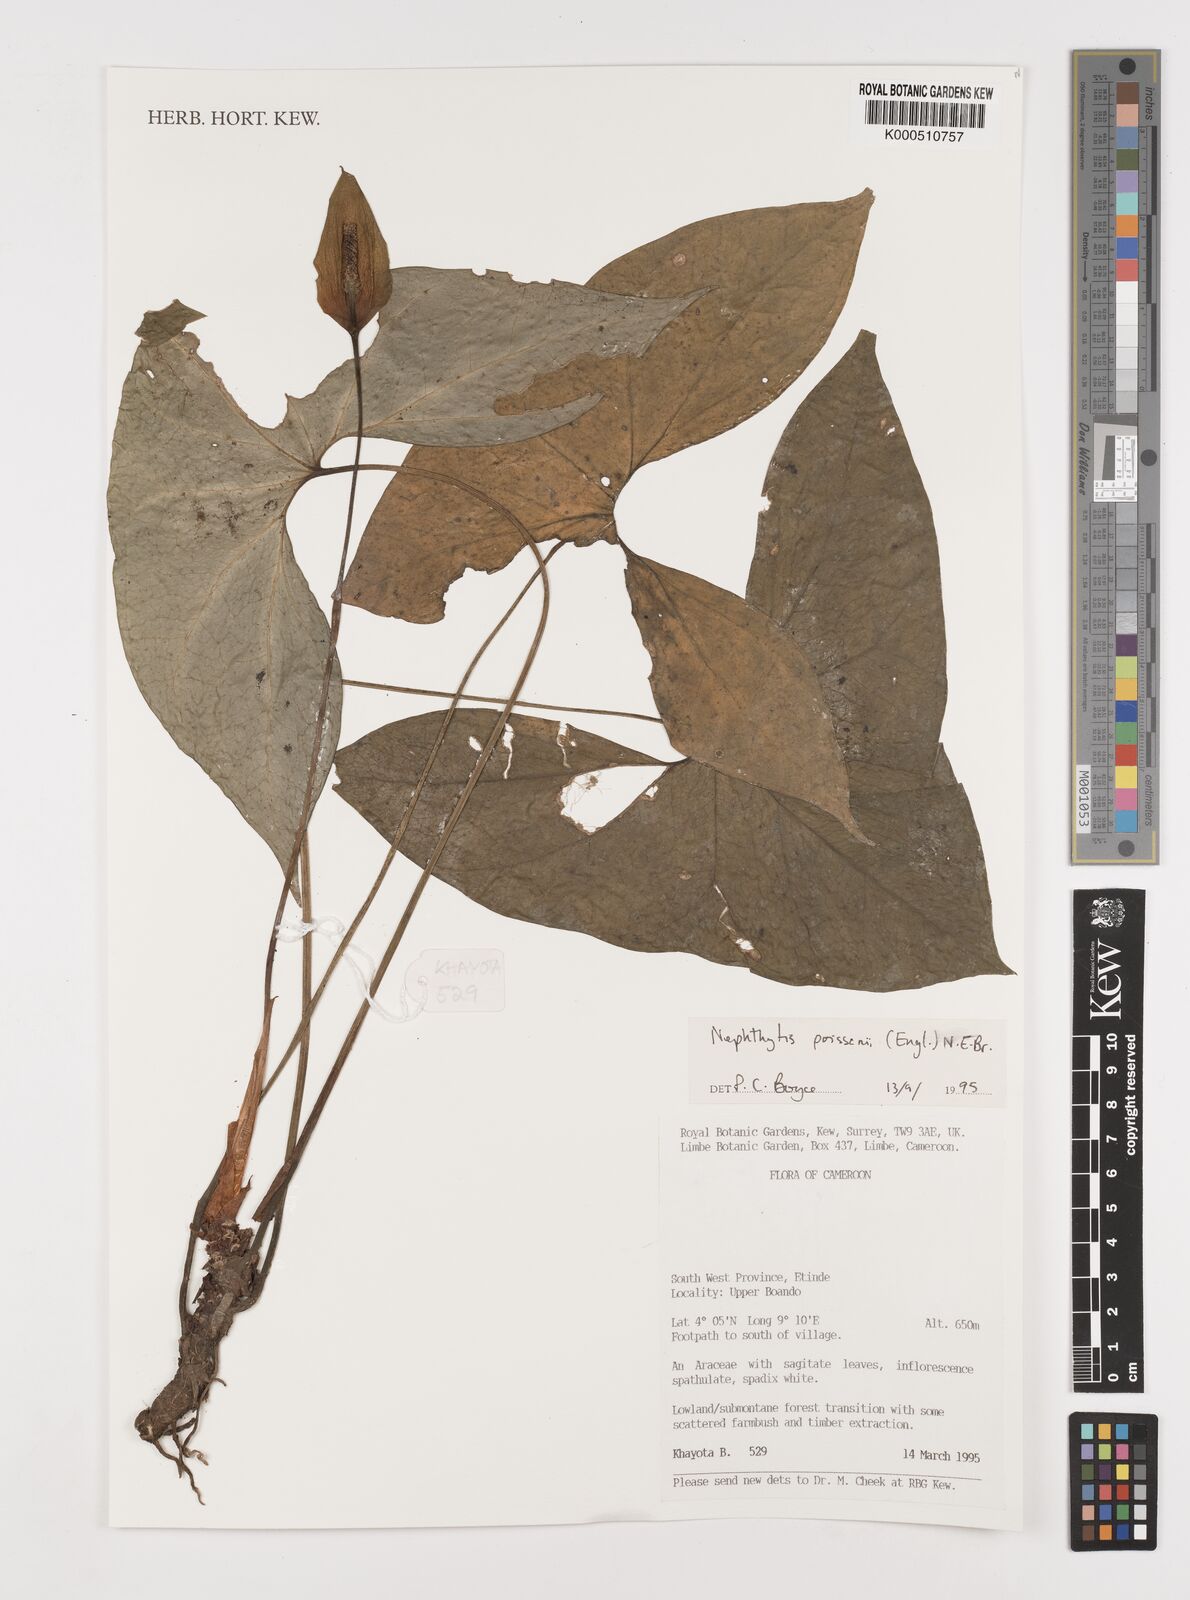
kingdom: Plantae
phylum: Tracheophyta
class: Liliopsida
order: Alismatales
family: Araceae
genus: Nephthytis
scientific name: Nephthytis poissonii
